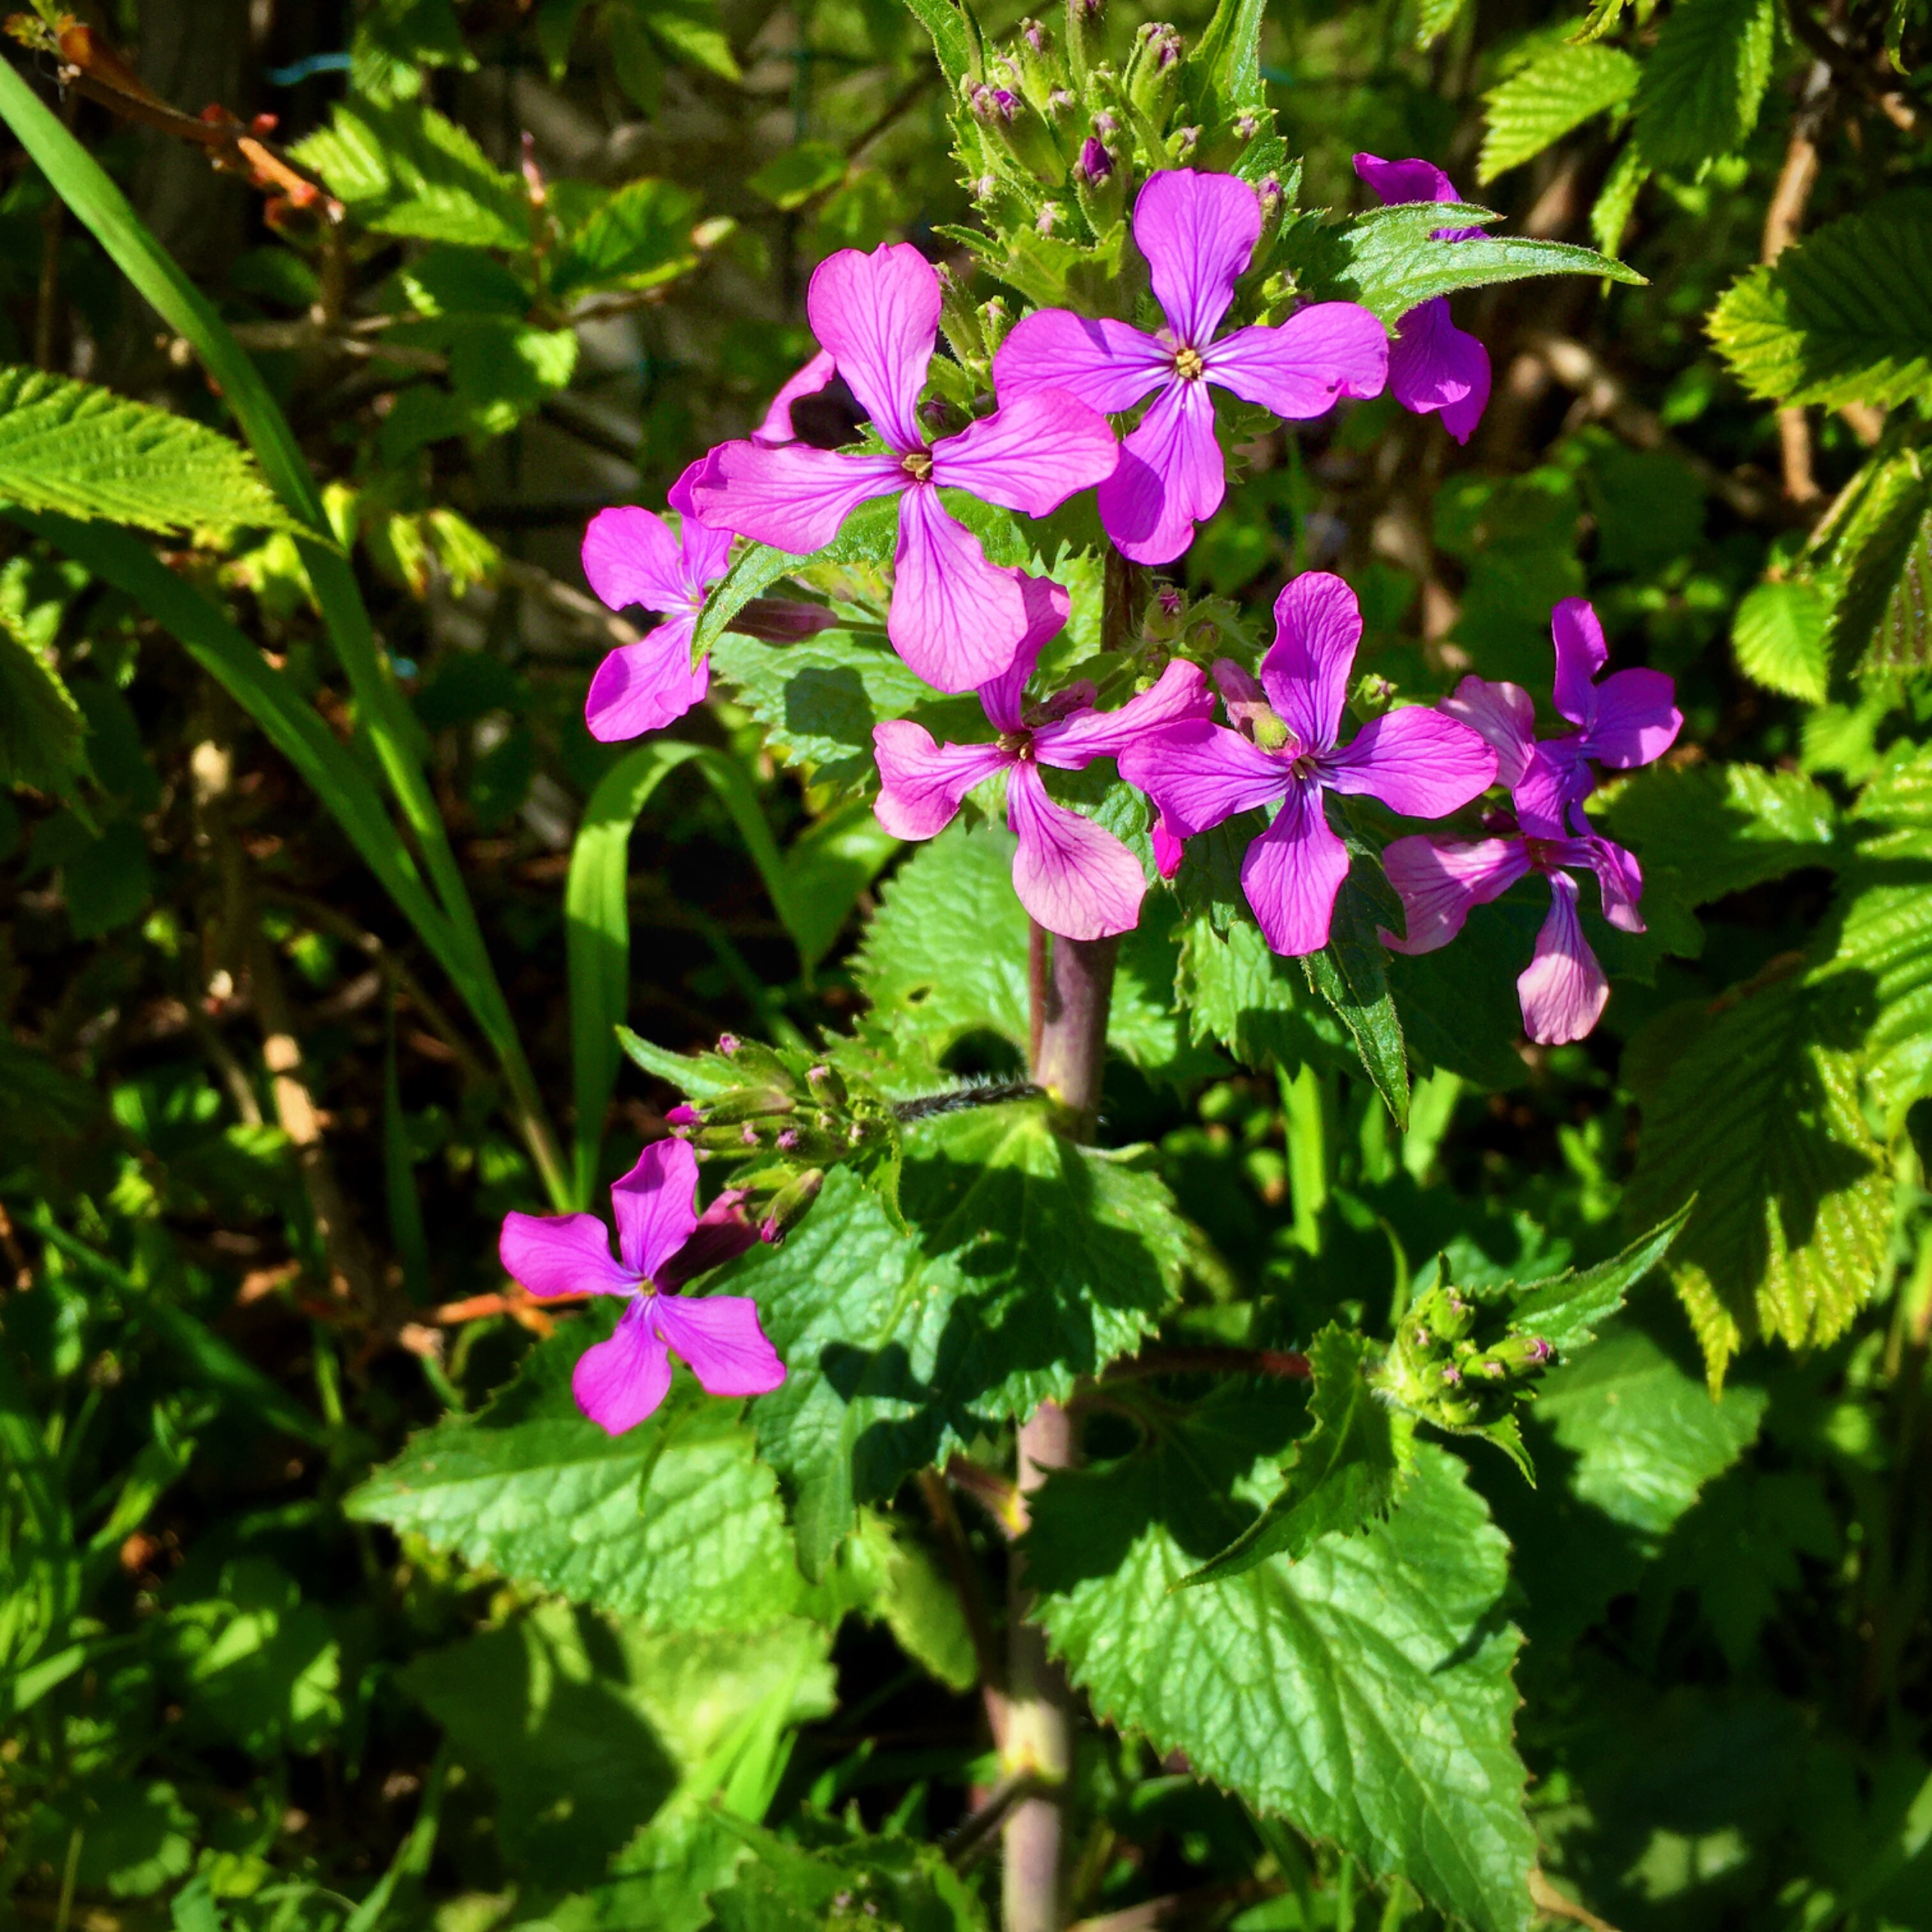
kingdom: Plantae
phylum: Tracheophyta
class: Magnoliopsida
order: Brassicales
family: Brassicaceae
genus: Lunaria
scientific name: Lunaria annua
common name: Judaspenge
